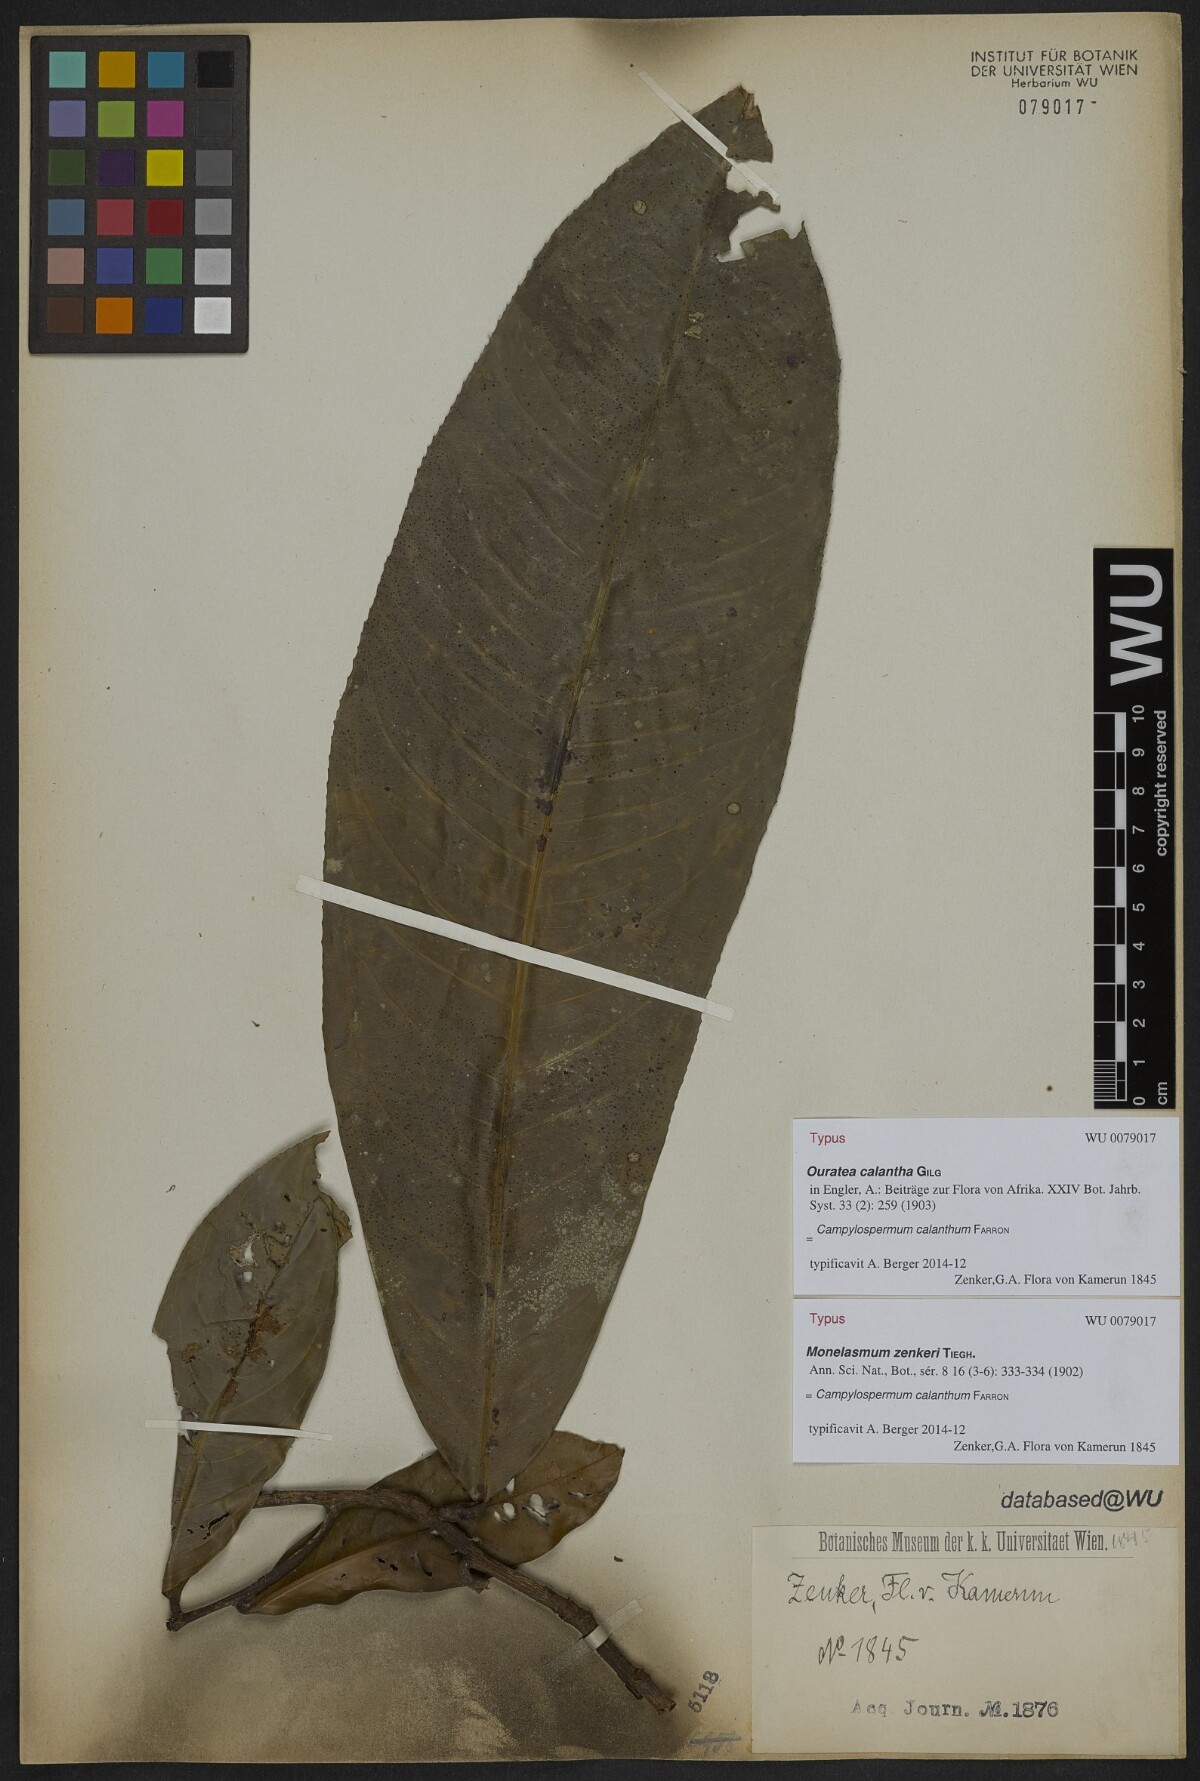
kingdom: Plantae
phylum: Tracheophyta
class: Magnoliopsida
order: Malpighiales
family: Ochnaceae
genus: Campylospermum
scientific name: Campylospermum zenkeri
